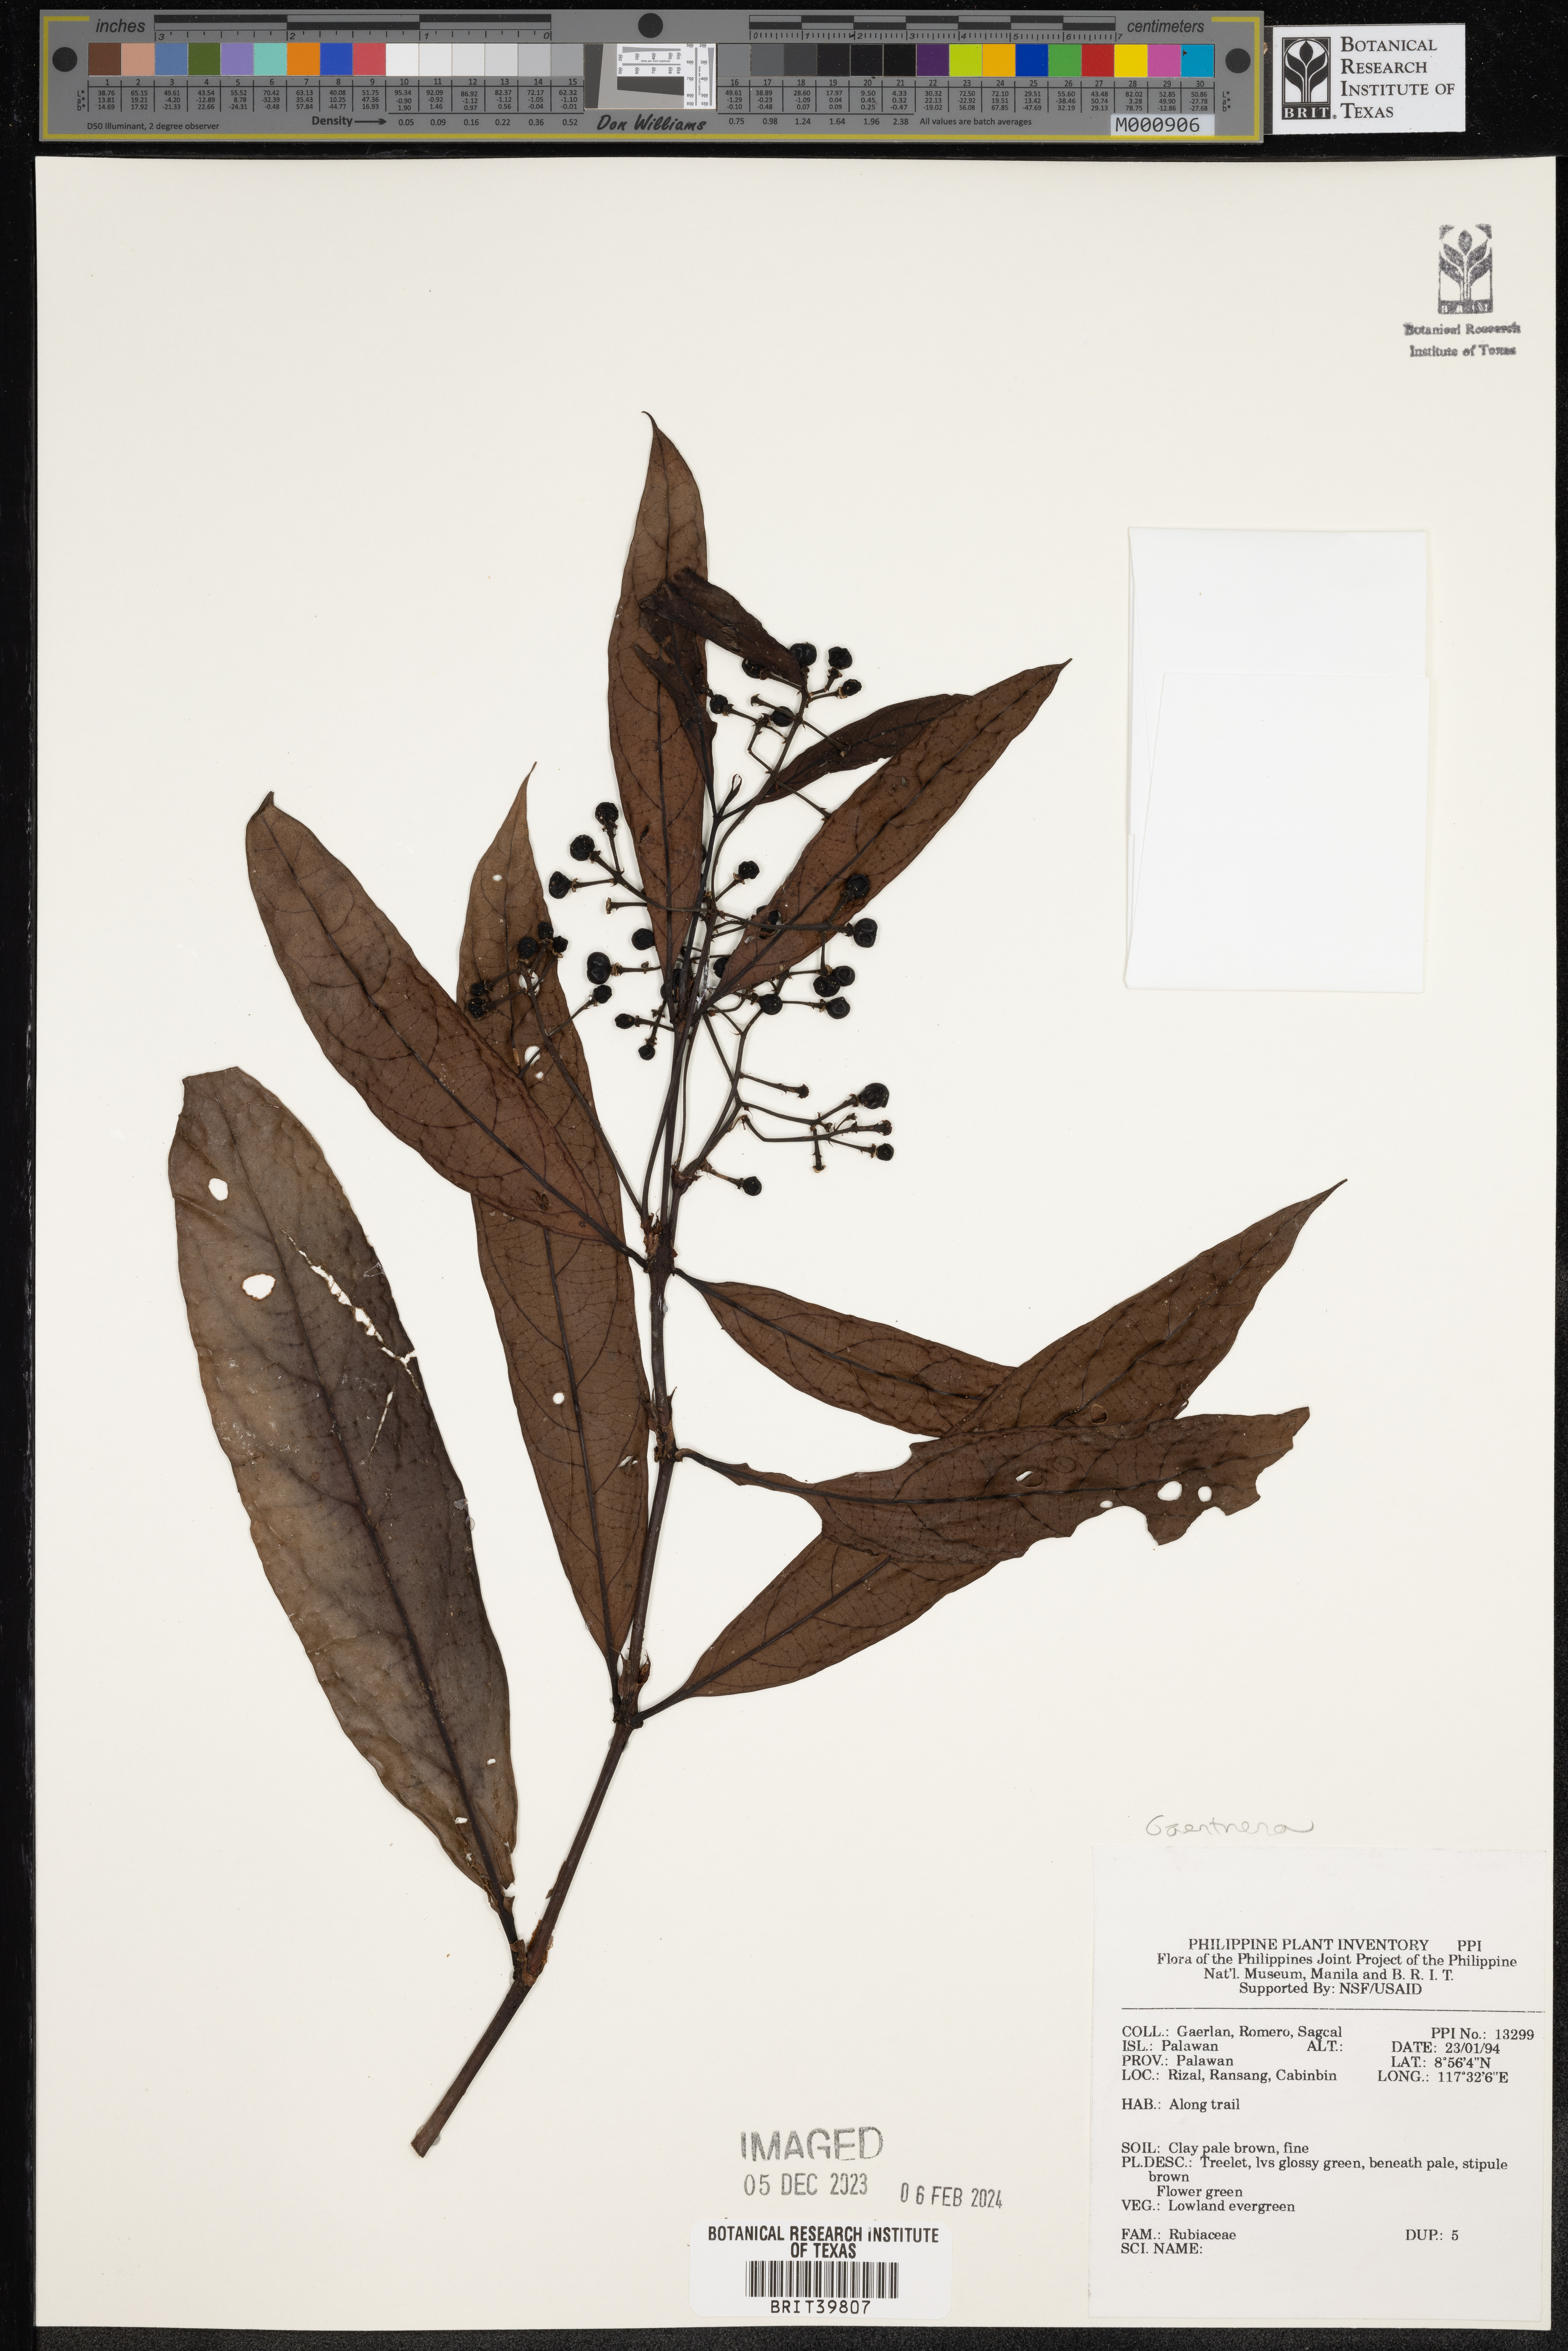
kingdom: Plantae
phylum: Tracheophyta
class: Magnoliopsida
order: Gentianales
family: Rubiaceae
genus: Gaertnera
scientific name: Gaertnera
